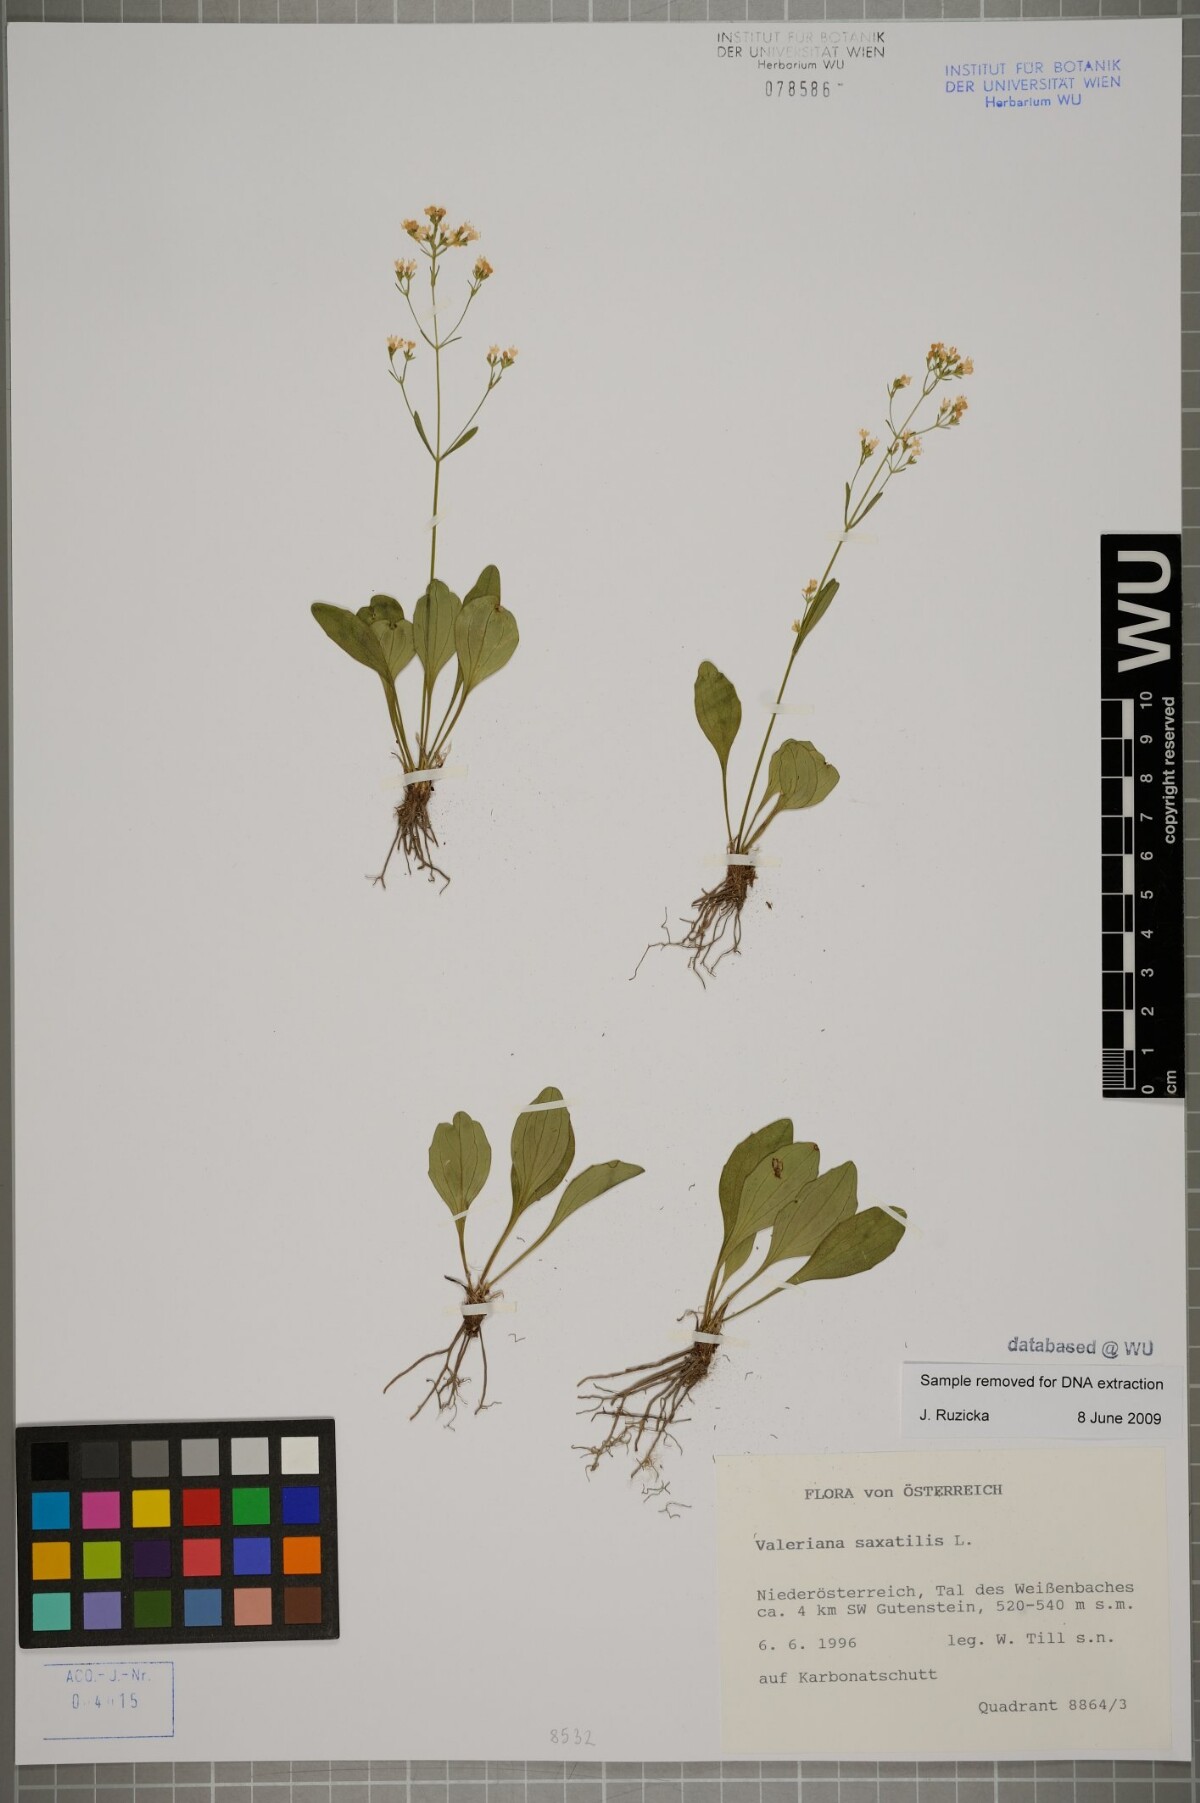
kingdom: Plantae
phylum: Tracheophyta
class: Magnoliopsida
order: Dipsacales
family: Caprifoliaceae
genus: Valeriana
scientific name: Valeriana saxatilis
